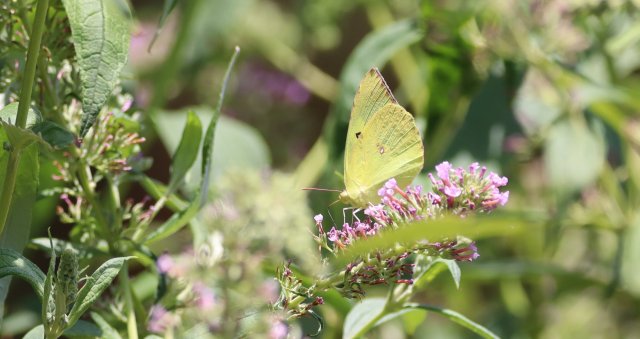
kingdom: Animalia
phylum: Arthropoda
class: Insecta
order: Lepidoptera
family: Pieridae
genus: Zerene
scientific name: Zerene cesonia
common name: Southern Dogface
